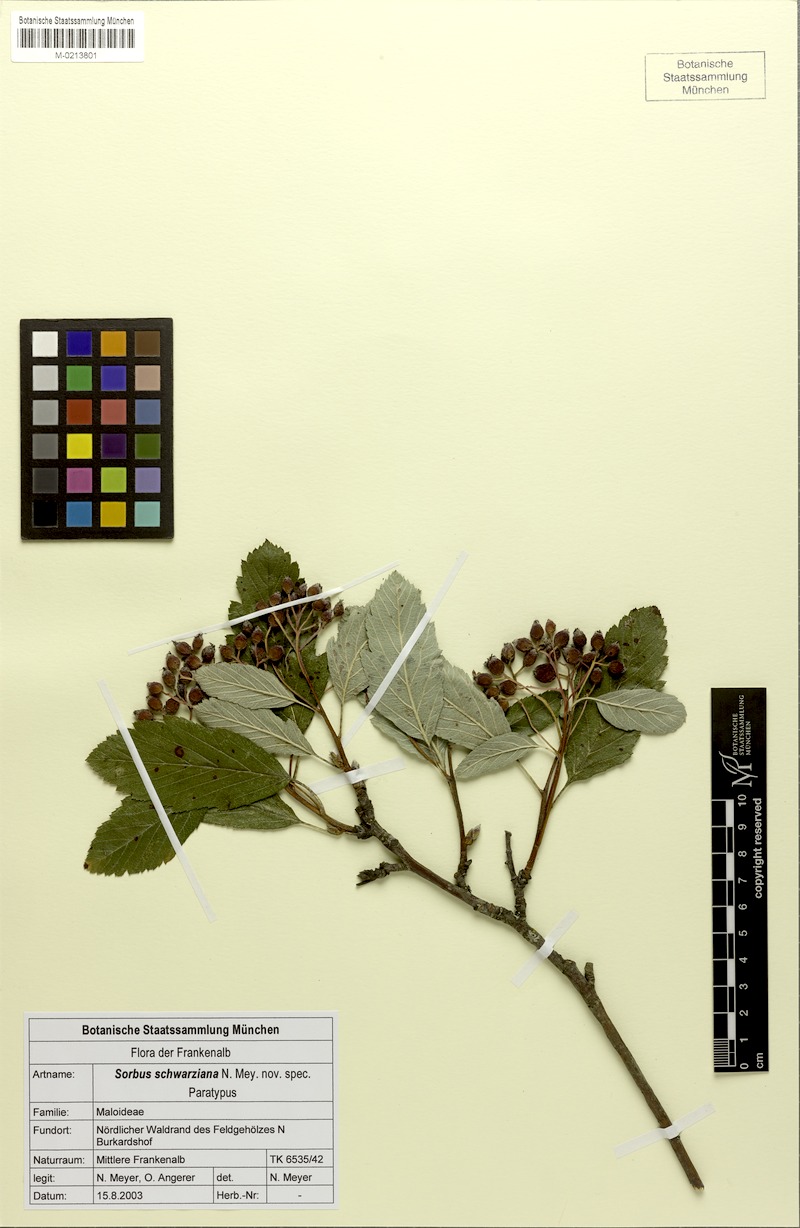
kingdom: Plantae
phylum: Tracheophyta
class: Magnoliopsida
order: Rosales
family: Rosaceae
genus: Hedlundia
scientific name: Hedlundia schwarziana
